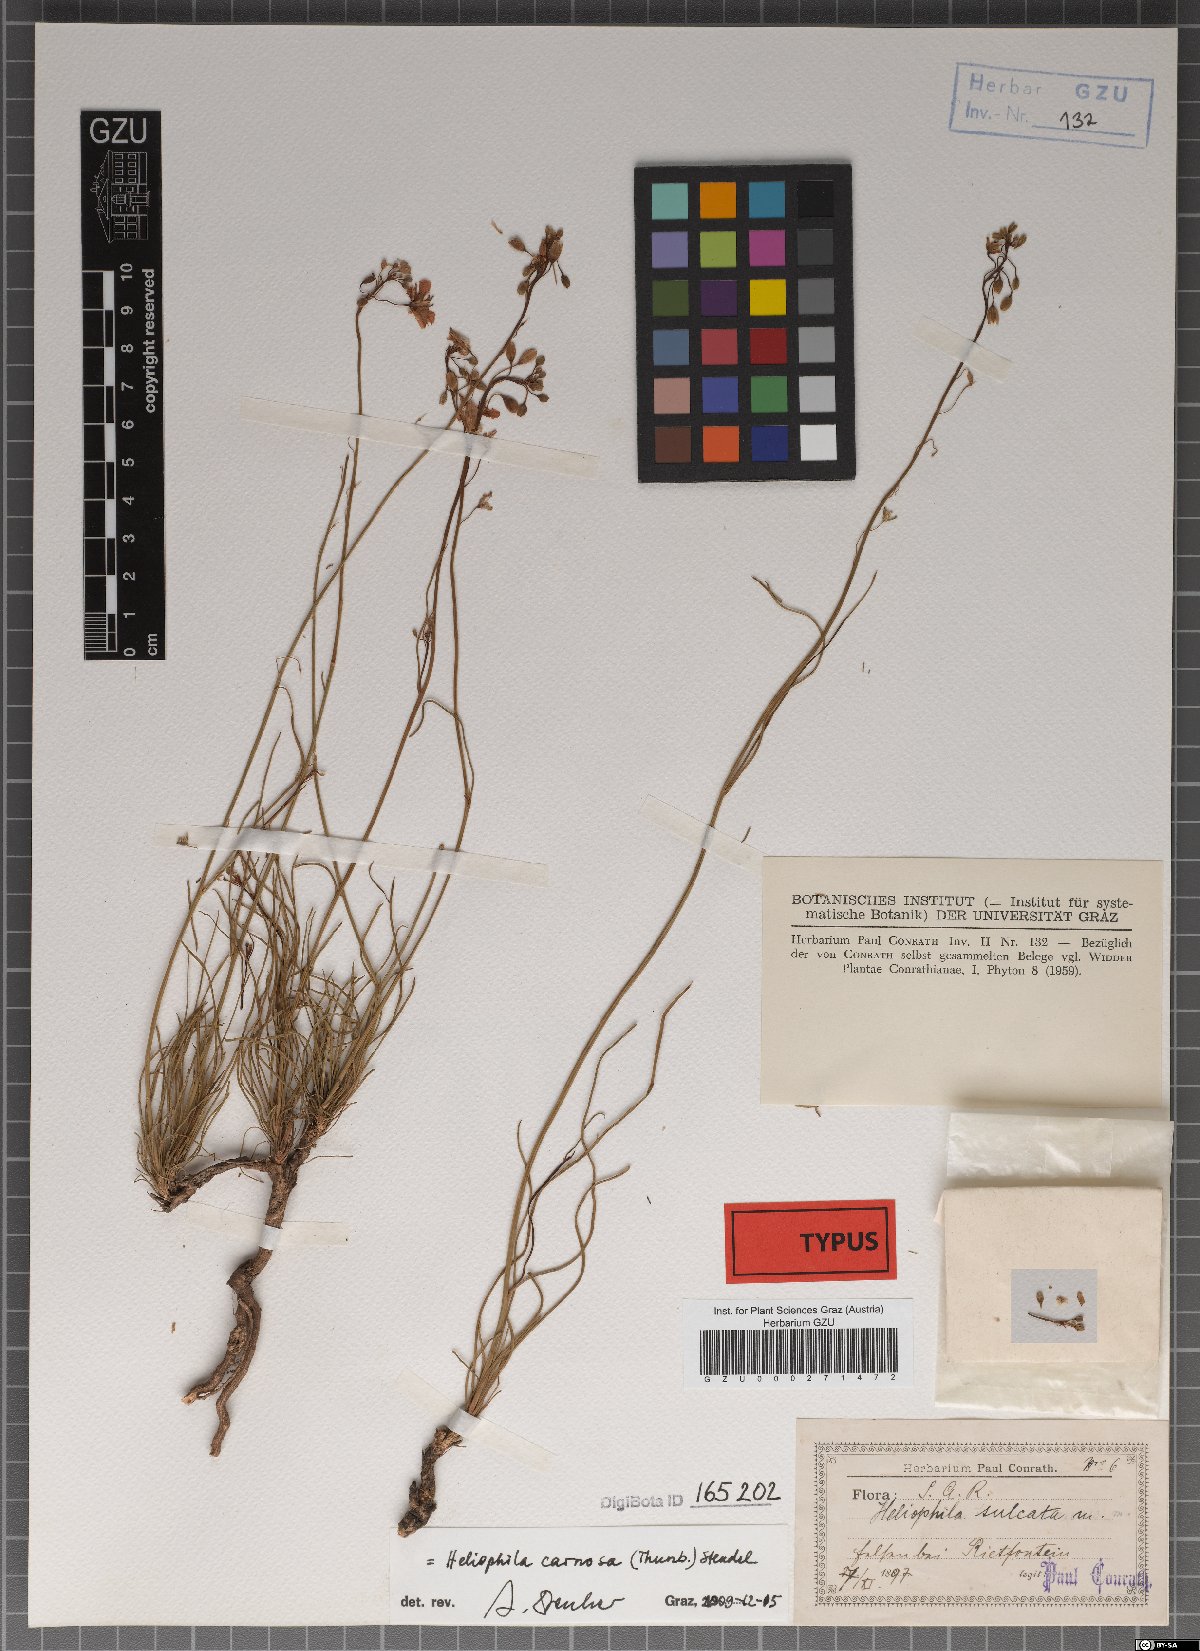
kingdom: Plantae
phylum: Tracheophyta
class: Magnoliopsida
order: Brassicales
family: Brassicaceae
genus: Heliophila
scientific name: Heliophila carnosa
